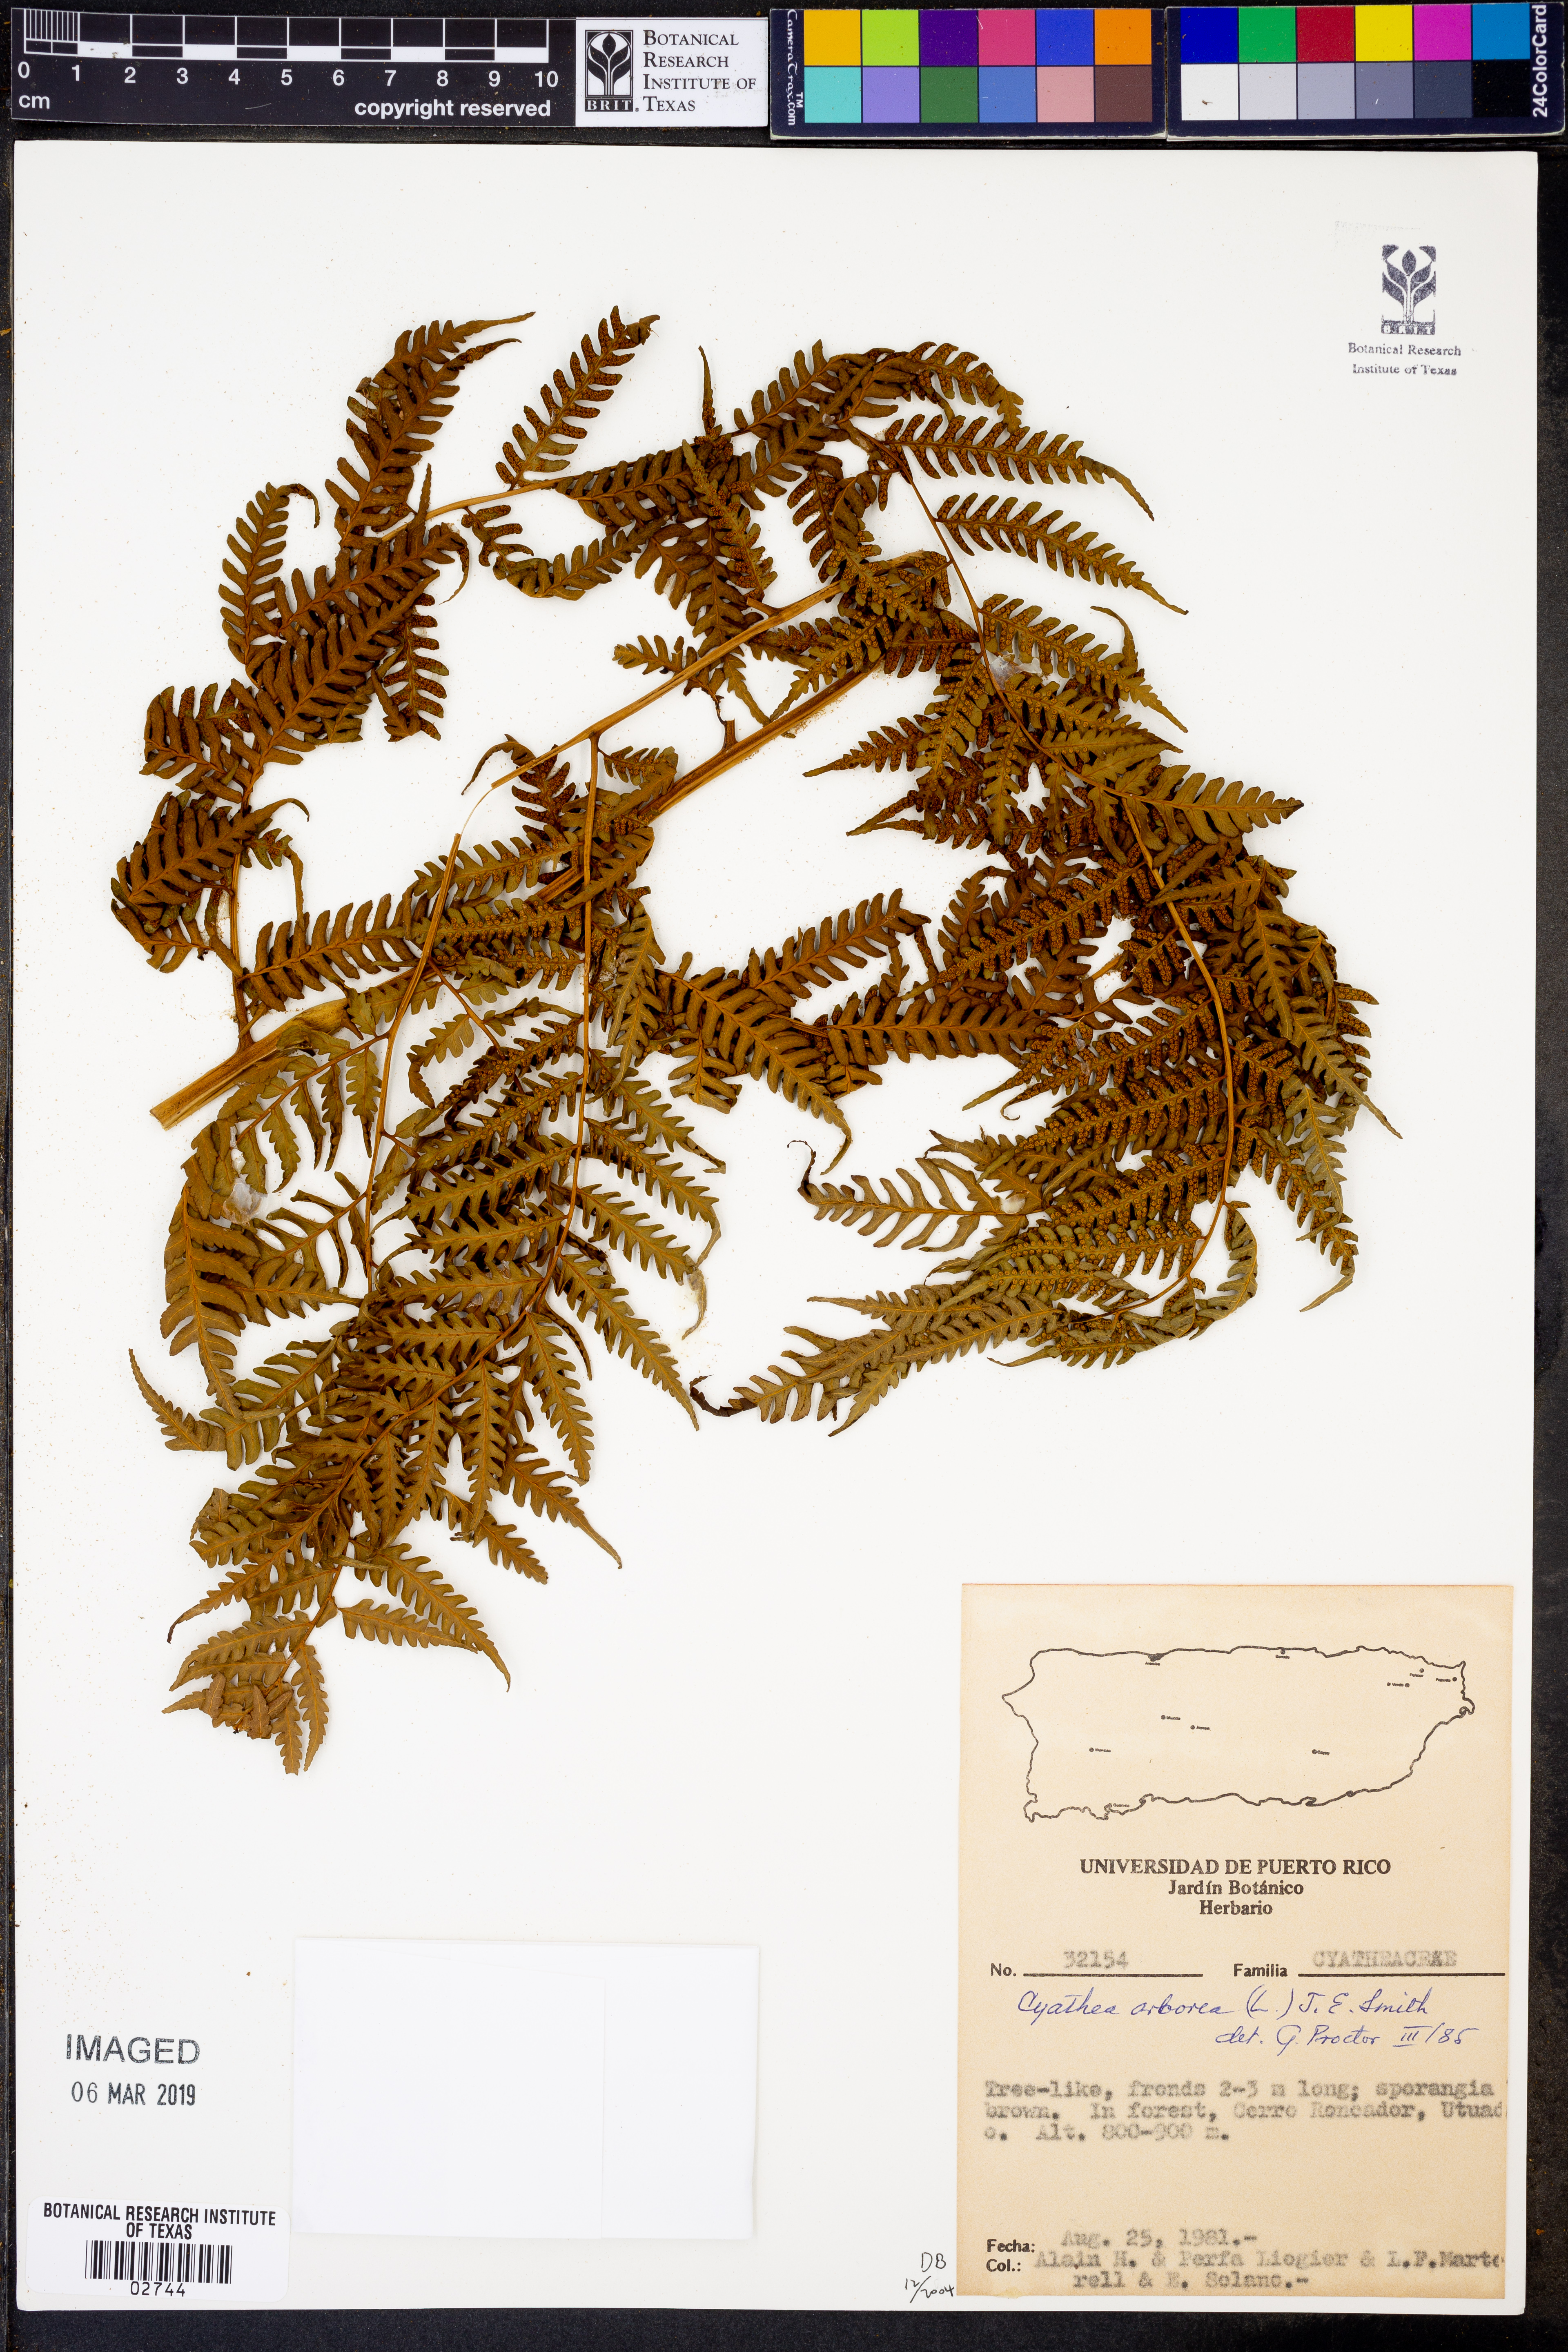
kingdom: Plantae
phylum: Tracheophyta
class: Polypodiopsida
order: Cyatheales
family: Cyatheaceae
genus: Cyathea
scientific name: Cyathea arborea
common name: West indian treefern
